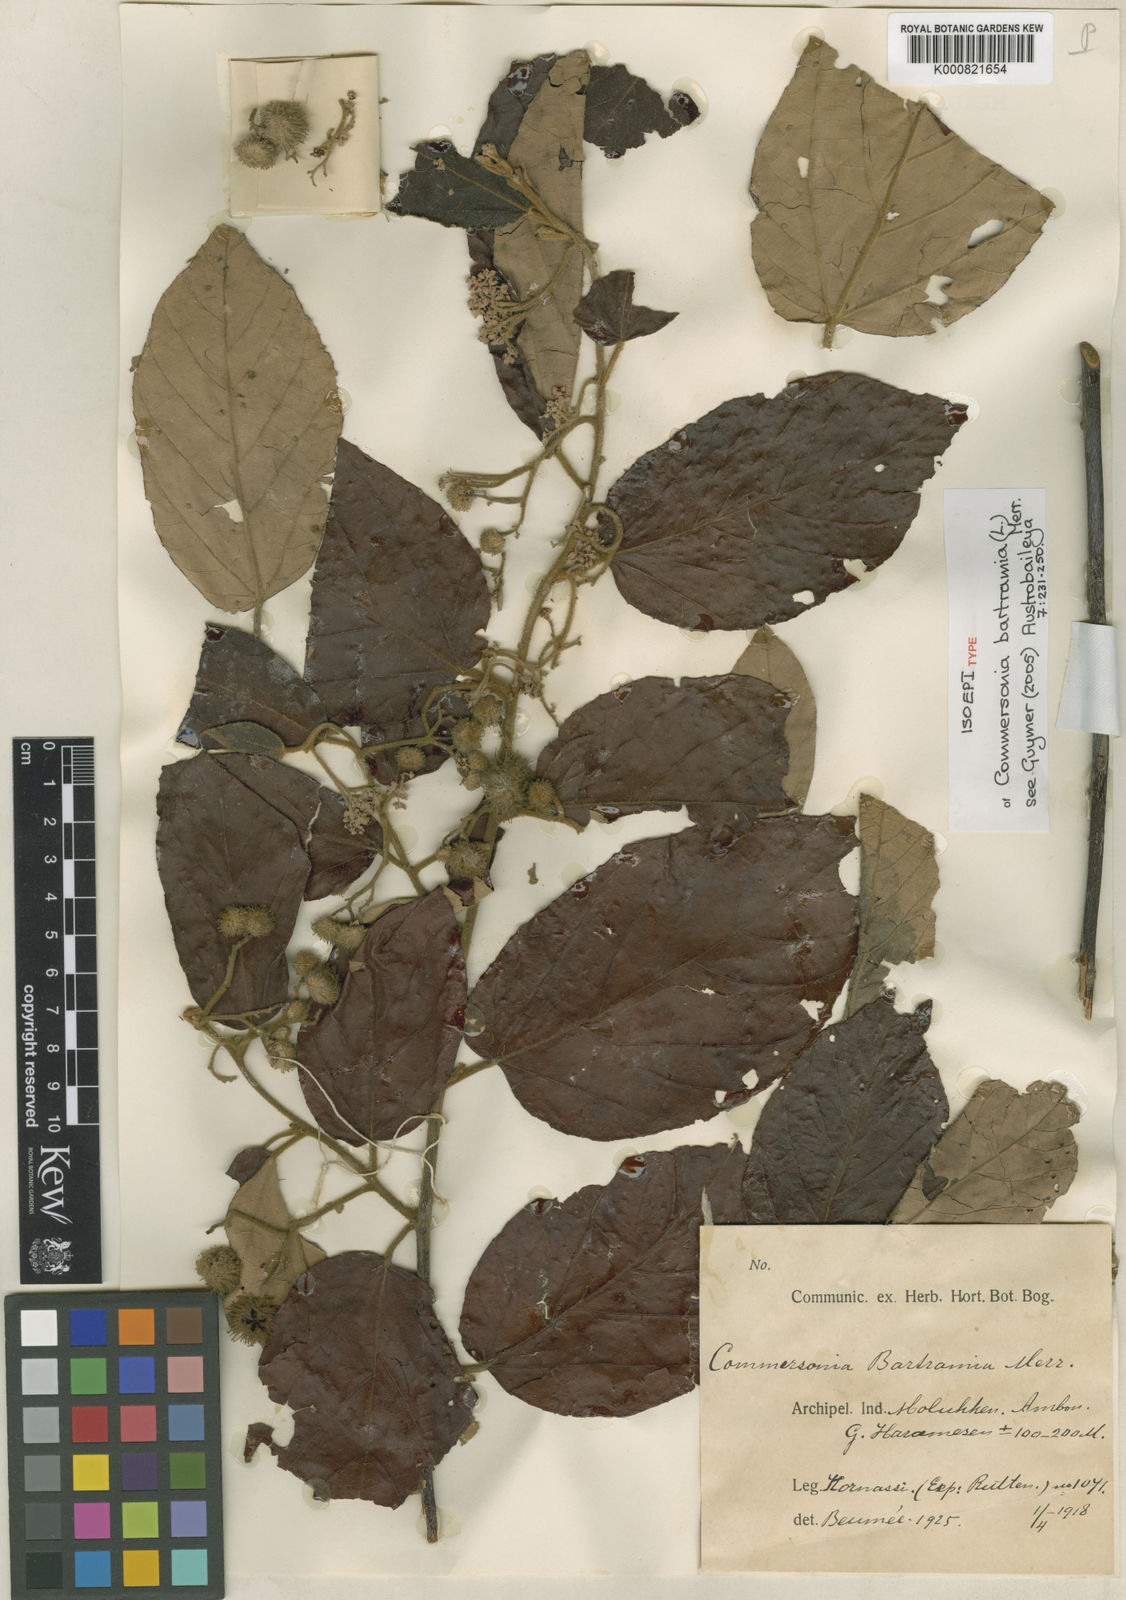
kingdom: Plantae
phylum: Tracheophyta
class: Magnoliopsida
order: Malvales
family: Malvaceae
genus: Commersonia
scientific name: Commersonia bartramia
